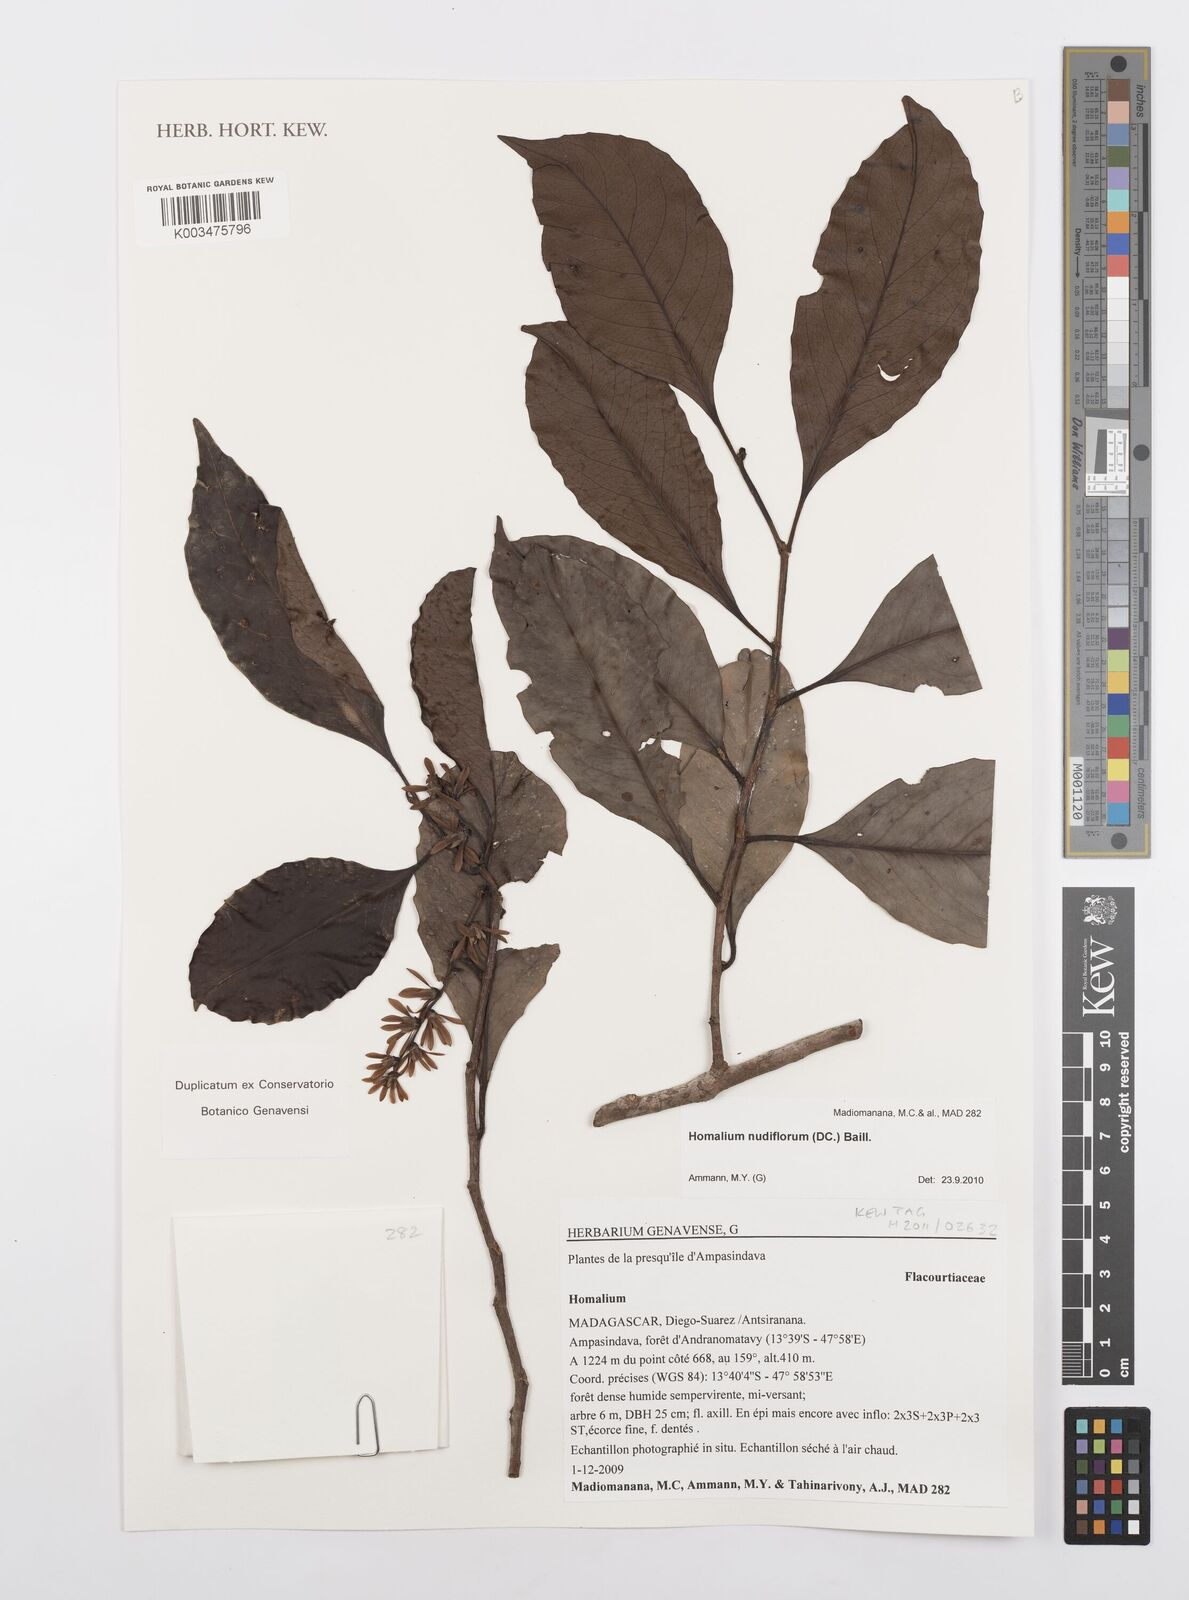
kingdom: Plantae
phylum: Tracheophyta
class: Magnoliopsida
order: Malpighiales
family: Salicaceae
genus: Homalium
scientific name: Homalium nudiflorum
